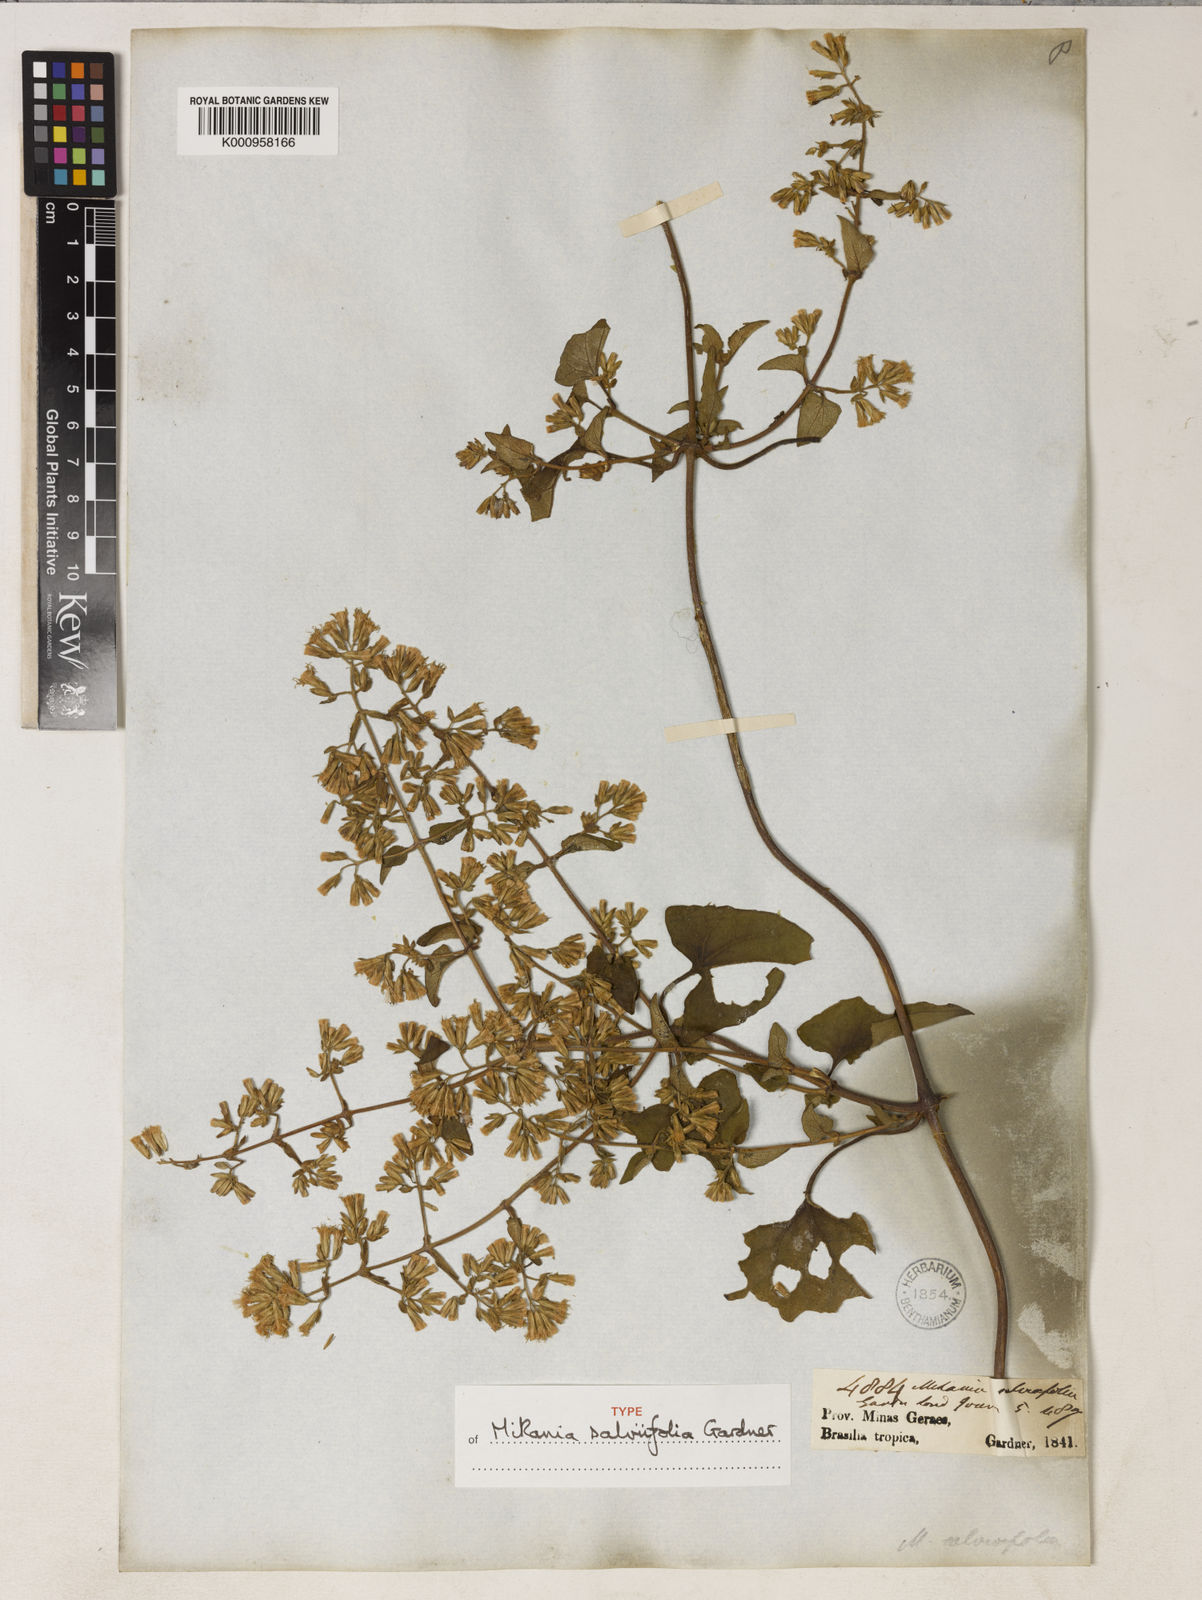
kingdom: Plantae
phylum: Tracheophyta
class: Magnoliopsida
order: Asterales
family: Asteraceae
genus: Mikania
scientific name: Mikania salviifolia
